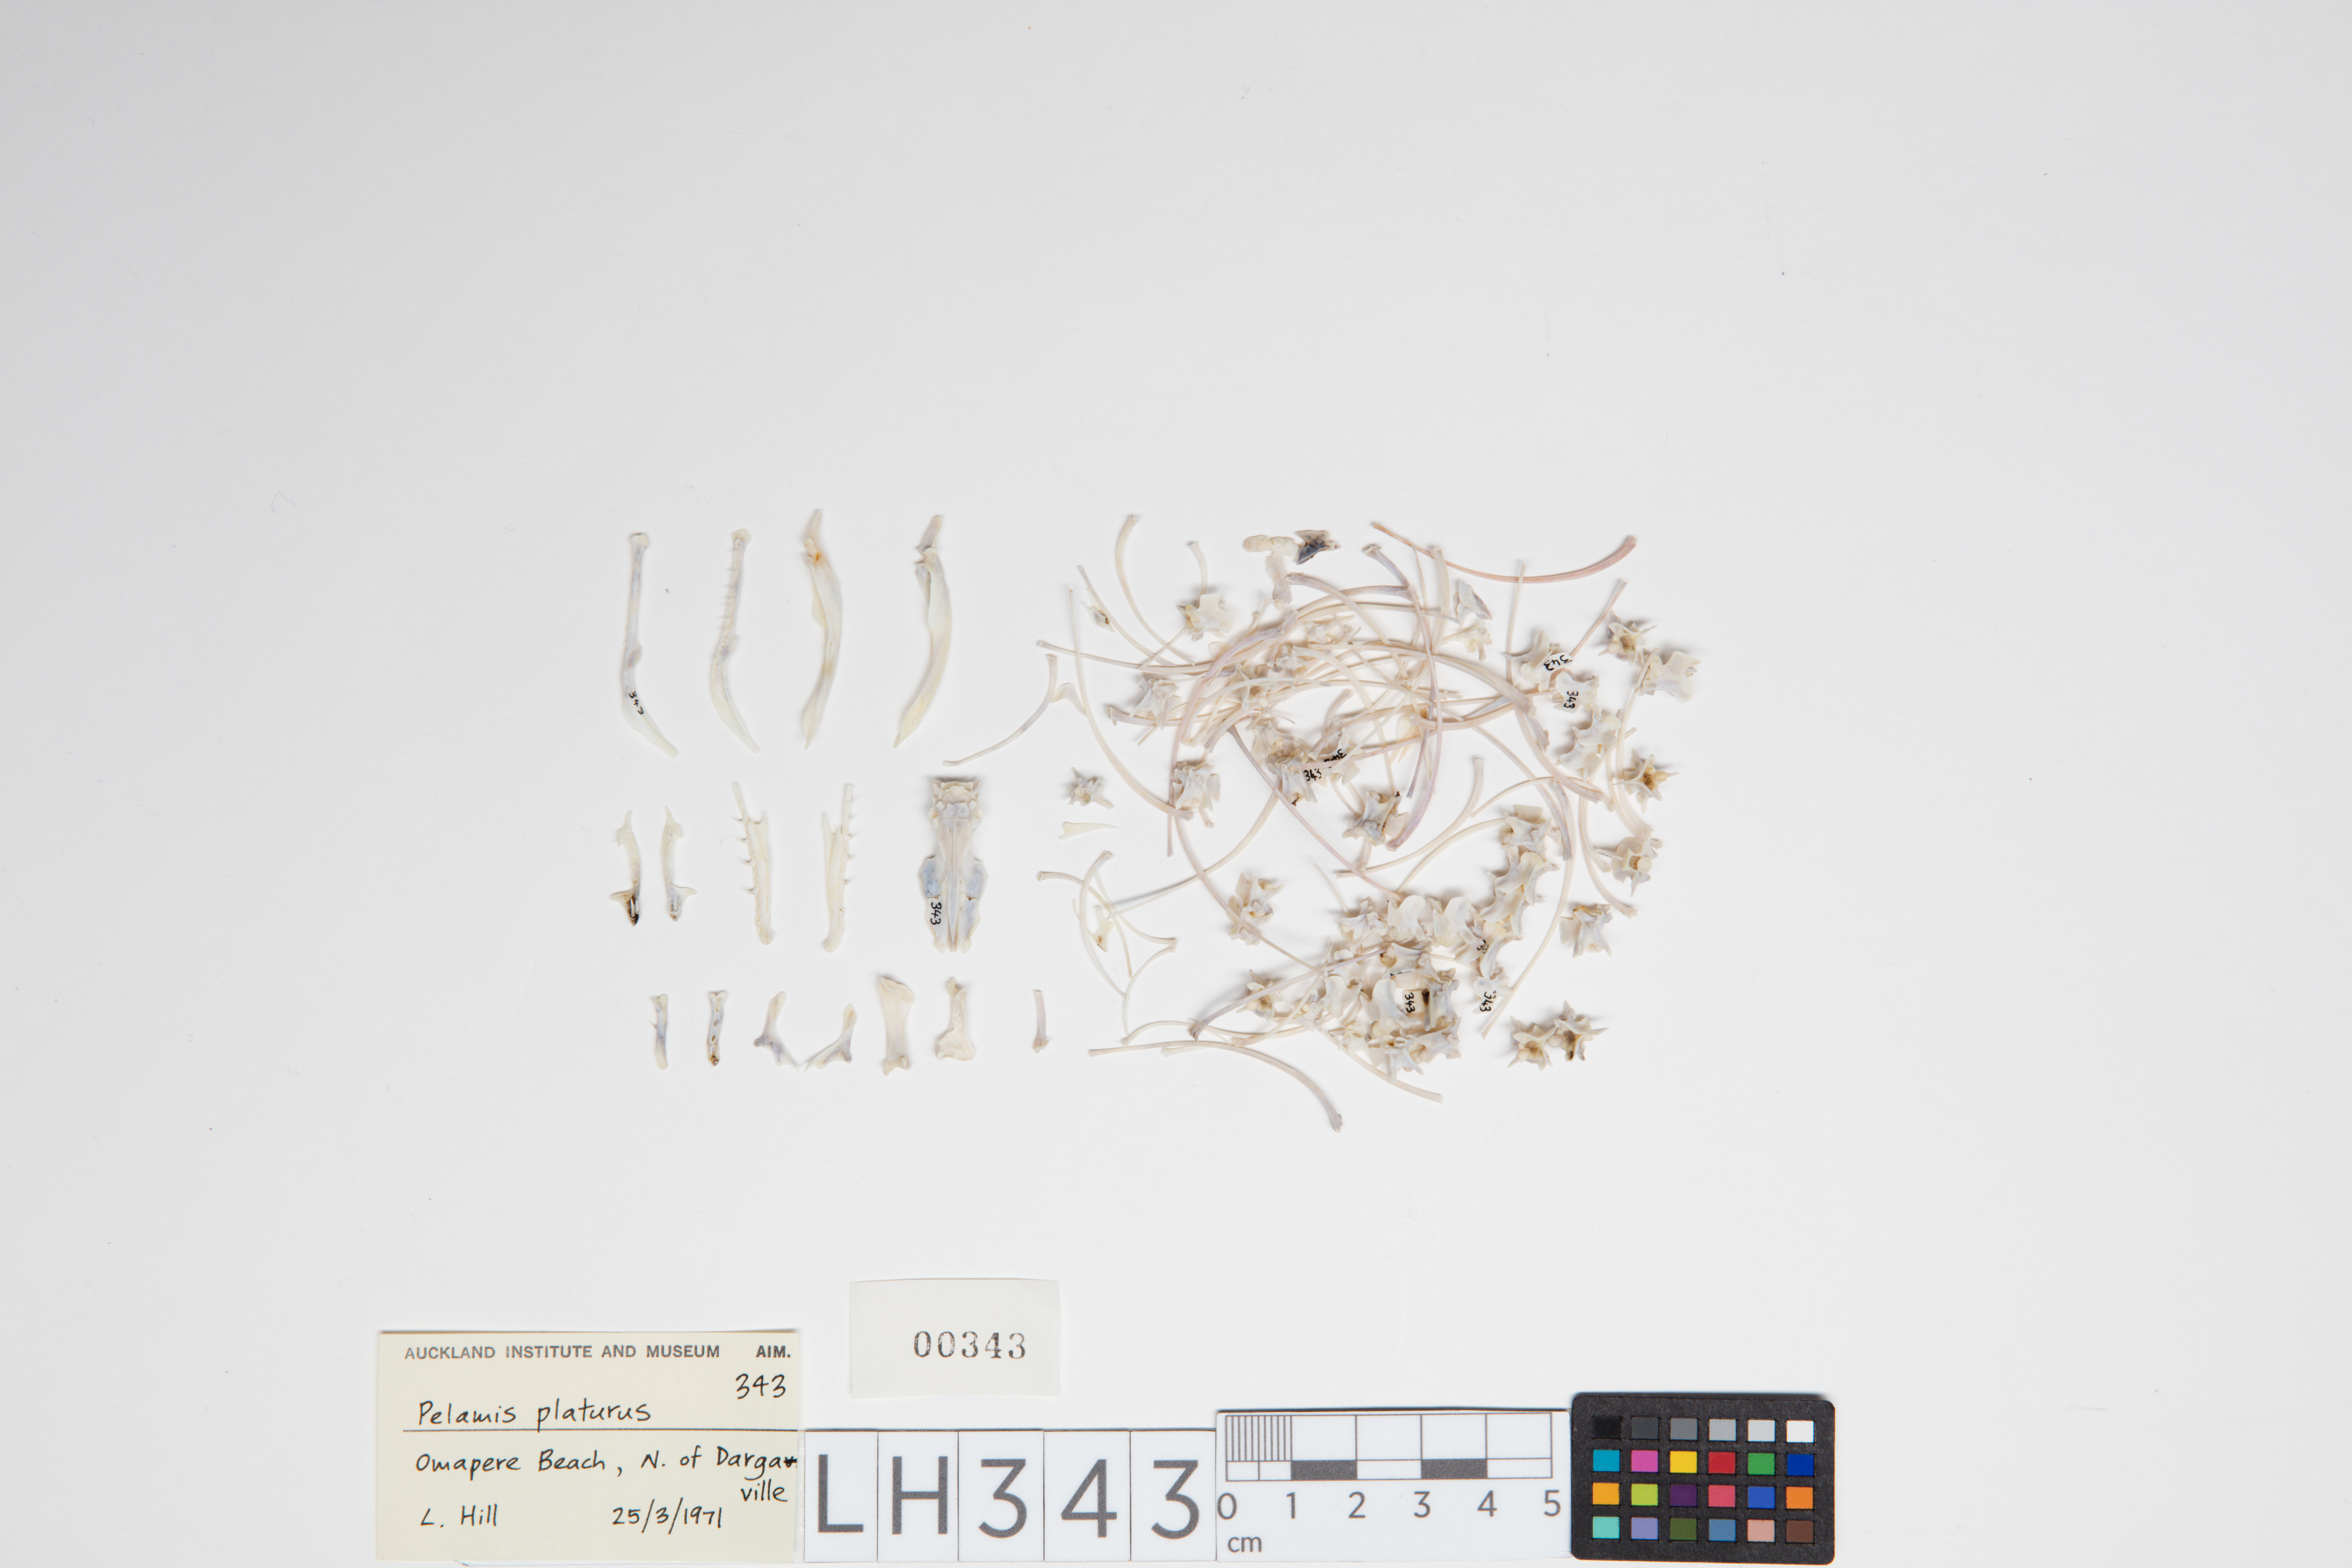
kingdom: Animalia
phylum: Chordata
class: Squamata
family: Elapidae
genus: Hydrophis
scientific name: Hydrophis
